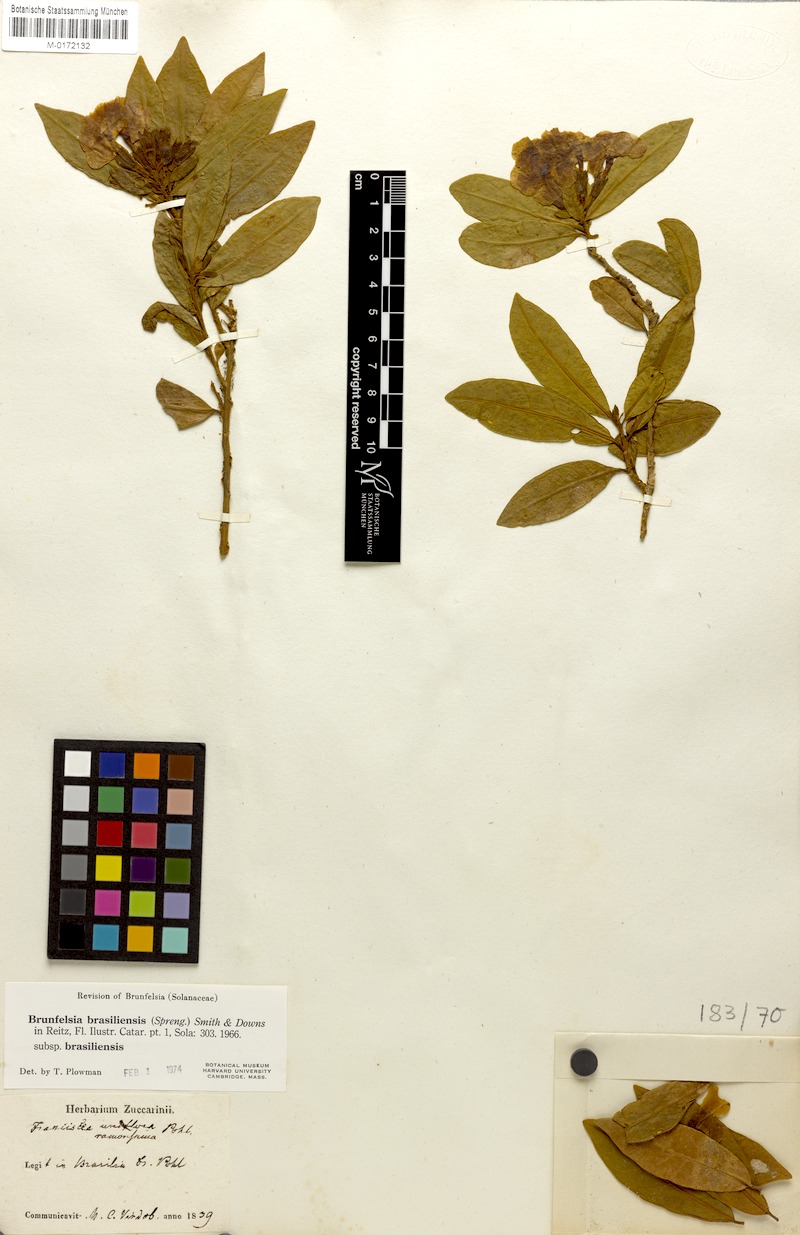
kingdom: Plantae
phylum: Tracheophyta
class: Magnoliopsida
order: Solanales
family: Solanaceae
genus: Brunfelsia
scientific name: Brunfelsia brasiliensis
